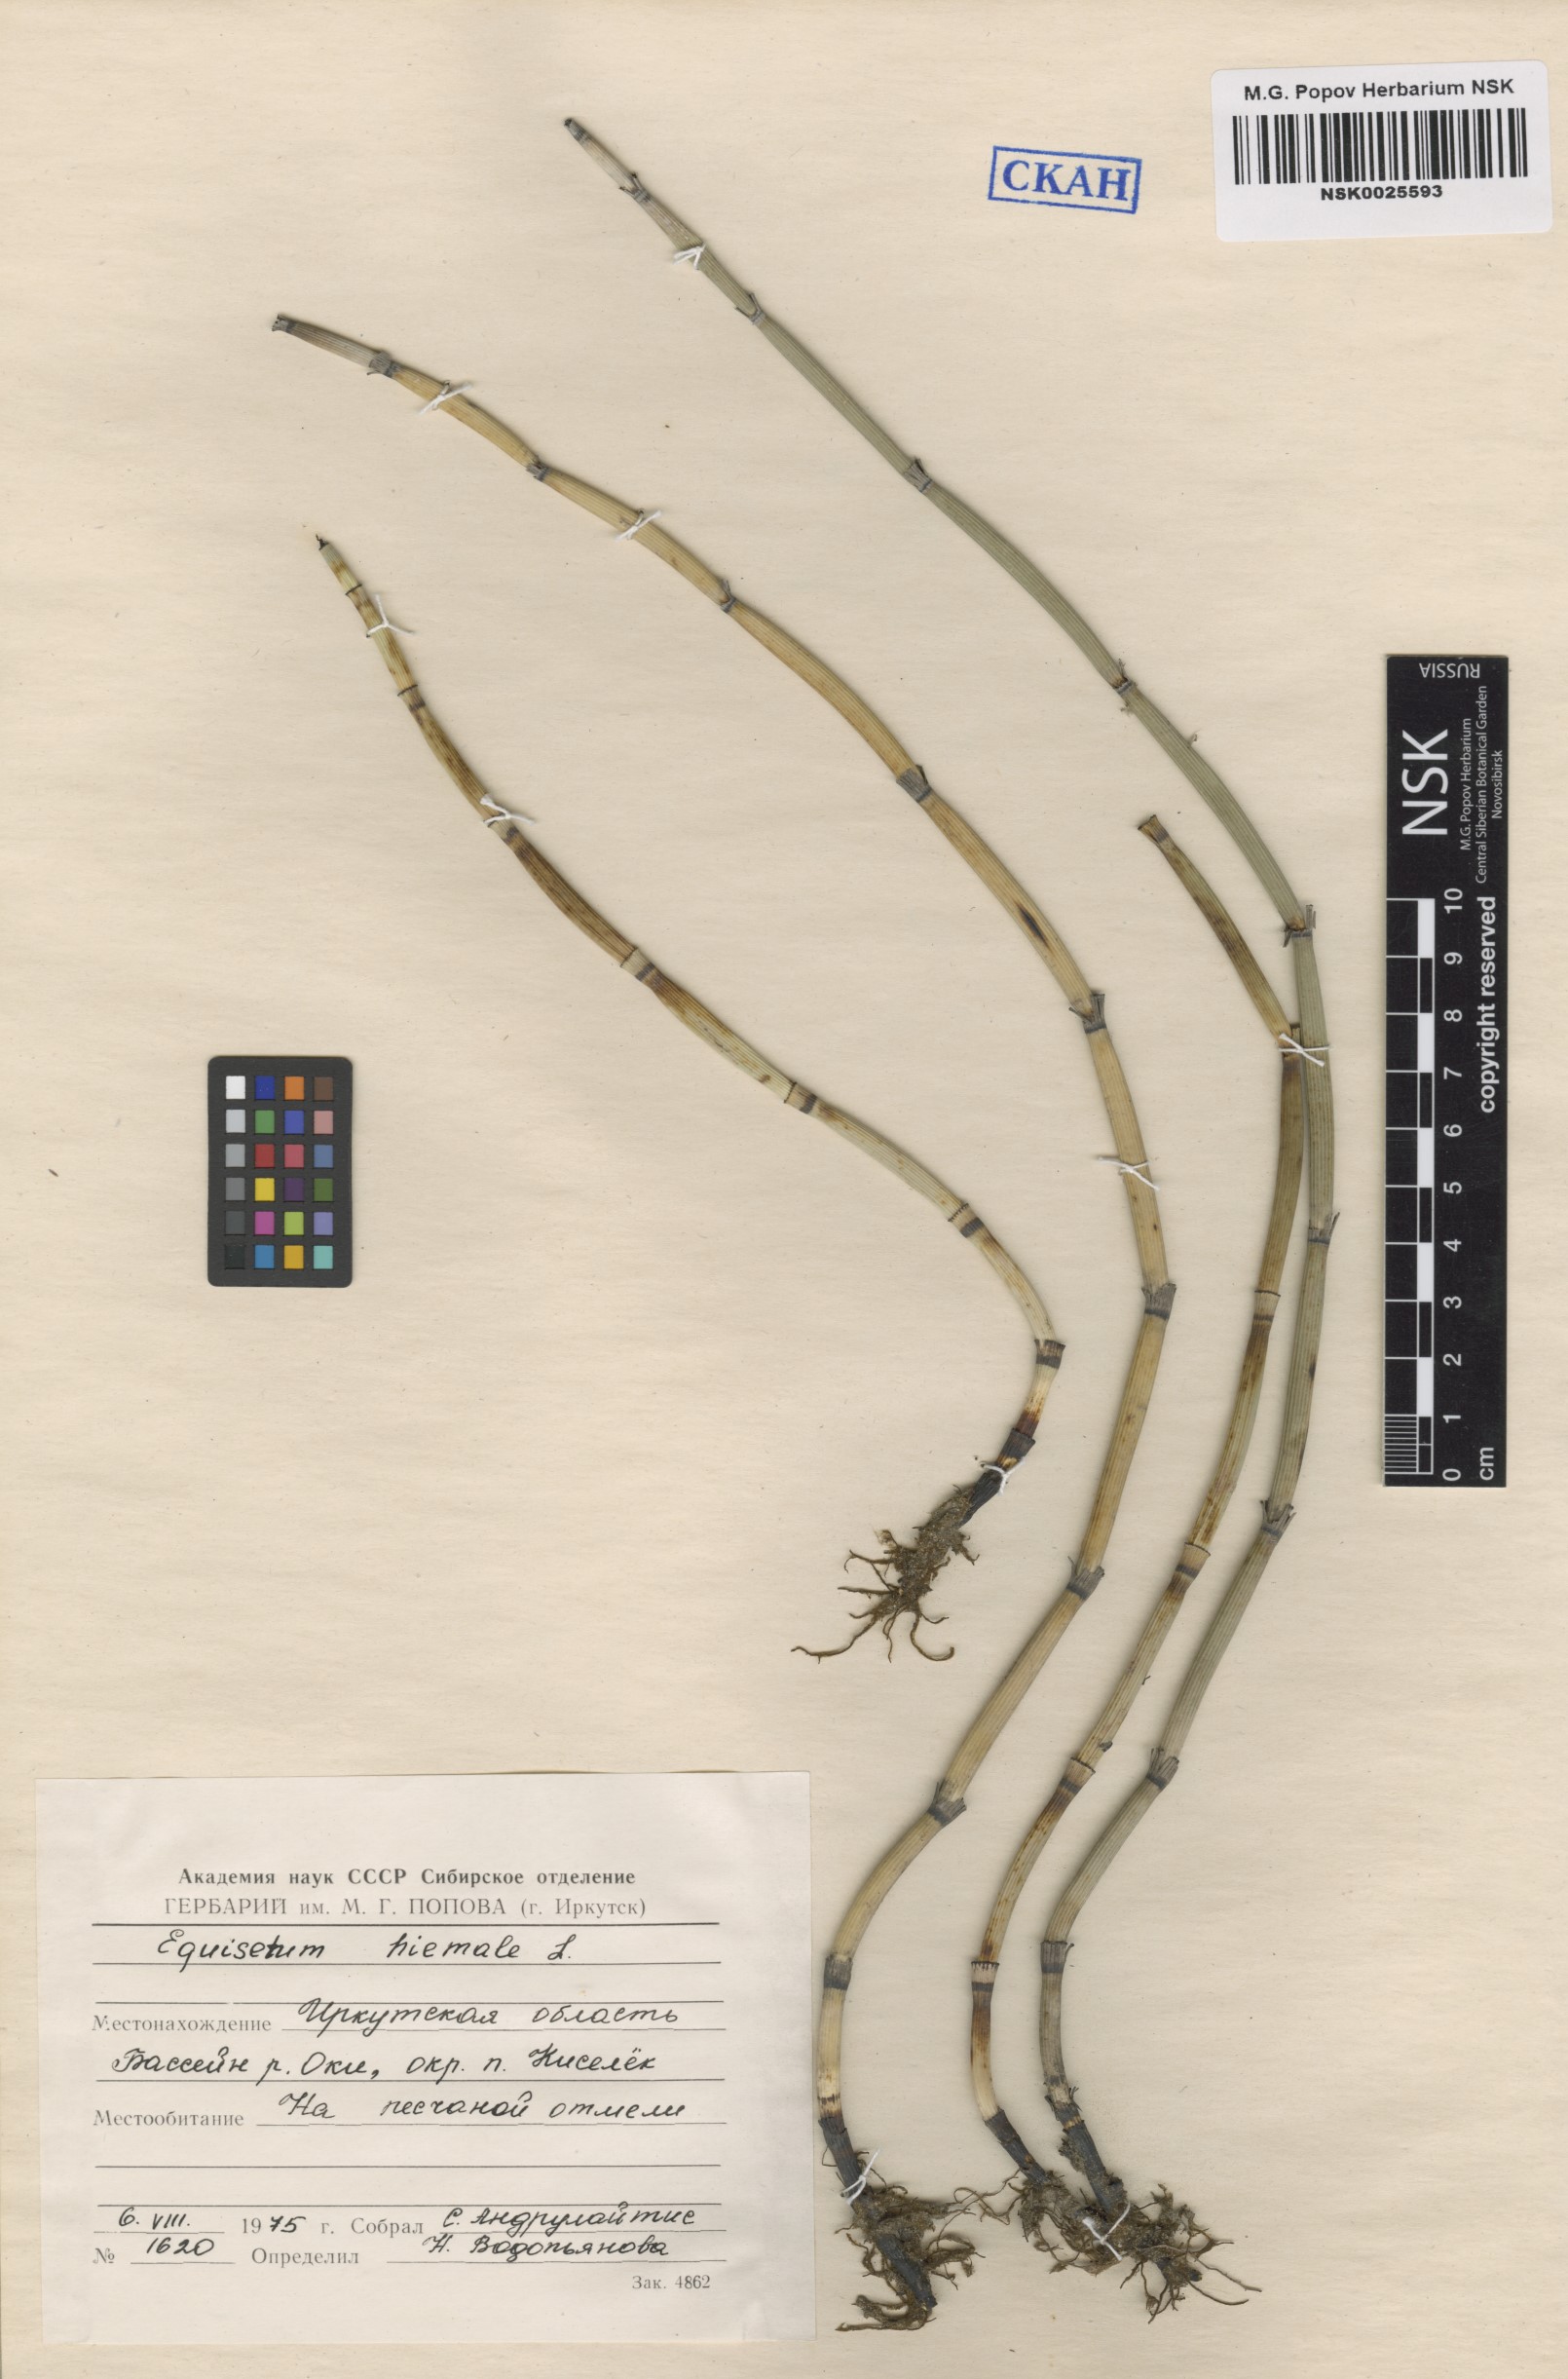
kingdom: Plantae
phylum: Tracheophyta
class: Polypodiopsida
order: Equisetales
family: Equisetaceae
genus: Equisetum
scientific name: Equisetum hyemale
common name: Rough horsetail
